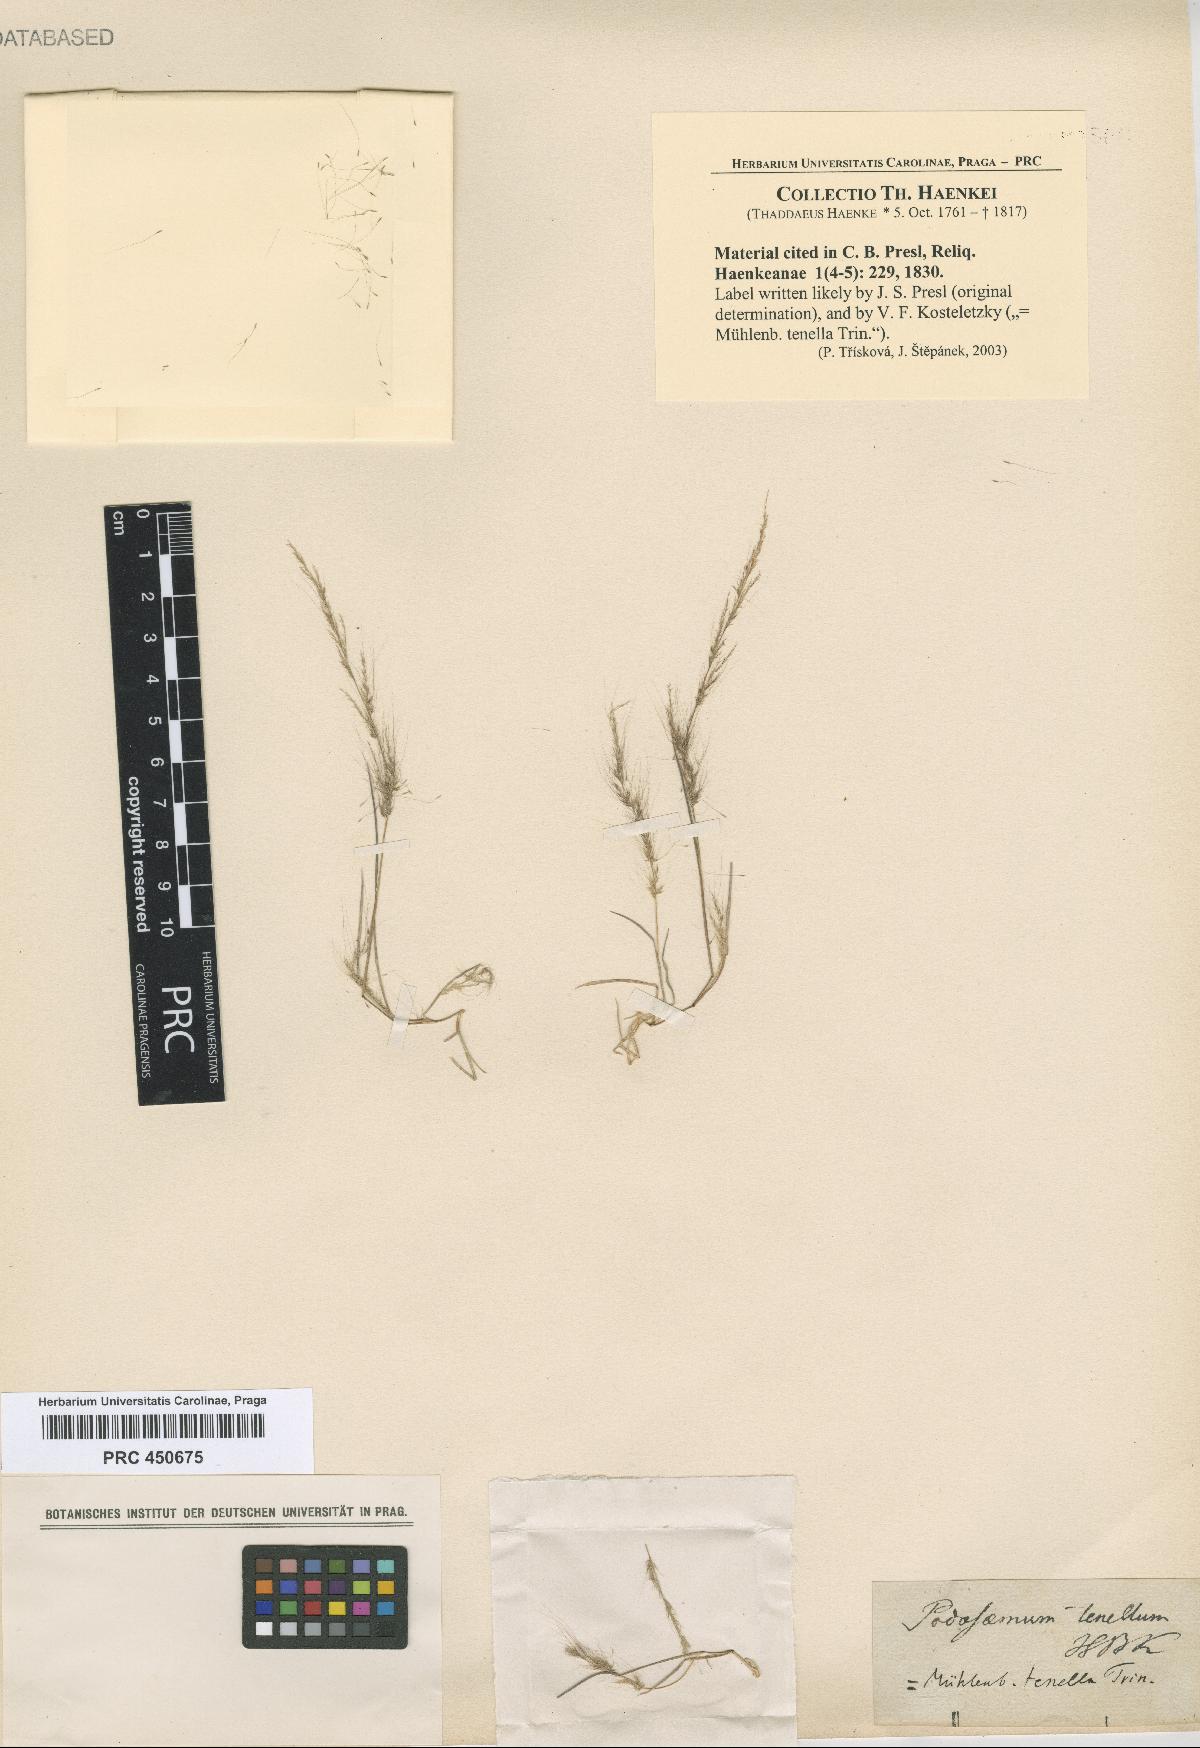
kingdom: Plantae
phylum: Tracheophyta
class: Liliopsida
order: Poales
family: Poaceae
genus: Muhlenbergia
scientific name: Muhlenbergia tenella
